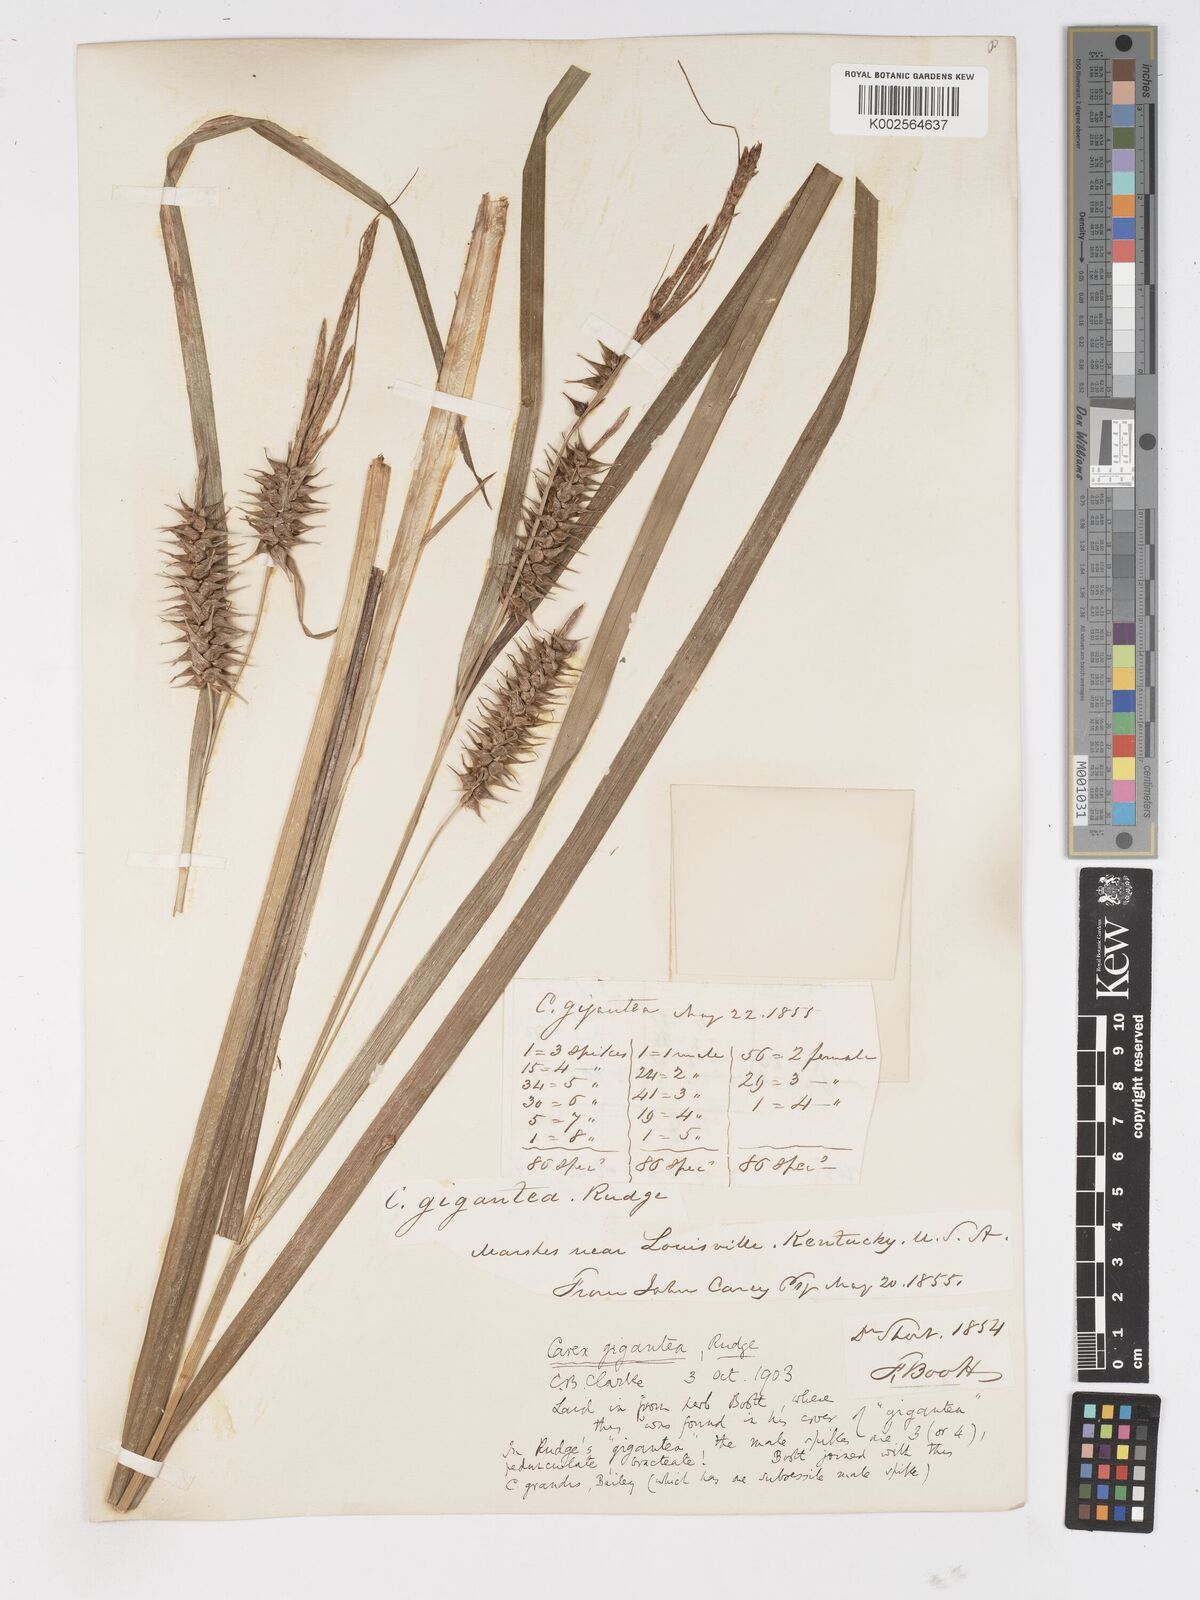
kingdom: Plantae
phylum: Tracheophyta
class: Liliopsida
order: Poales
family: Cyperaceae
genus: Carex
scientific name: Carex gigantea
